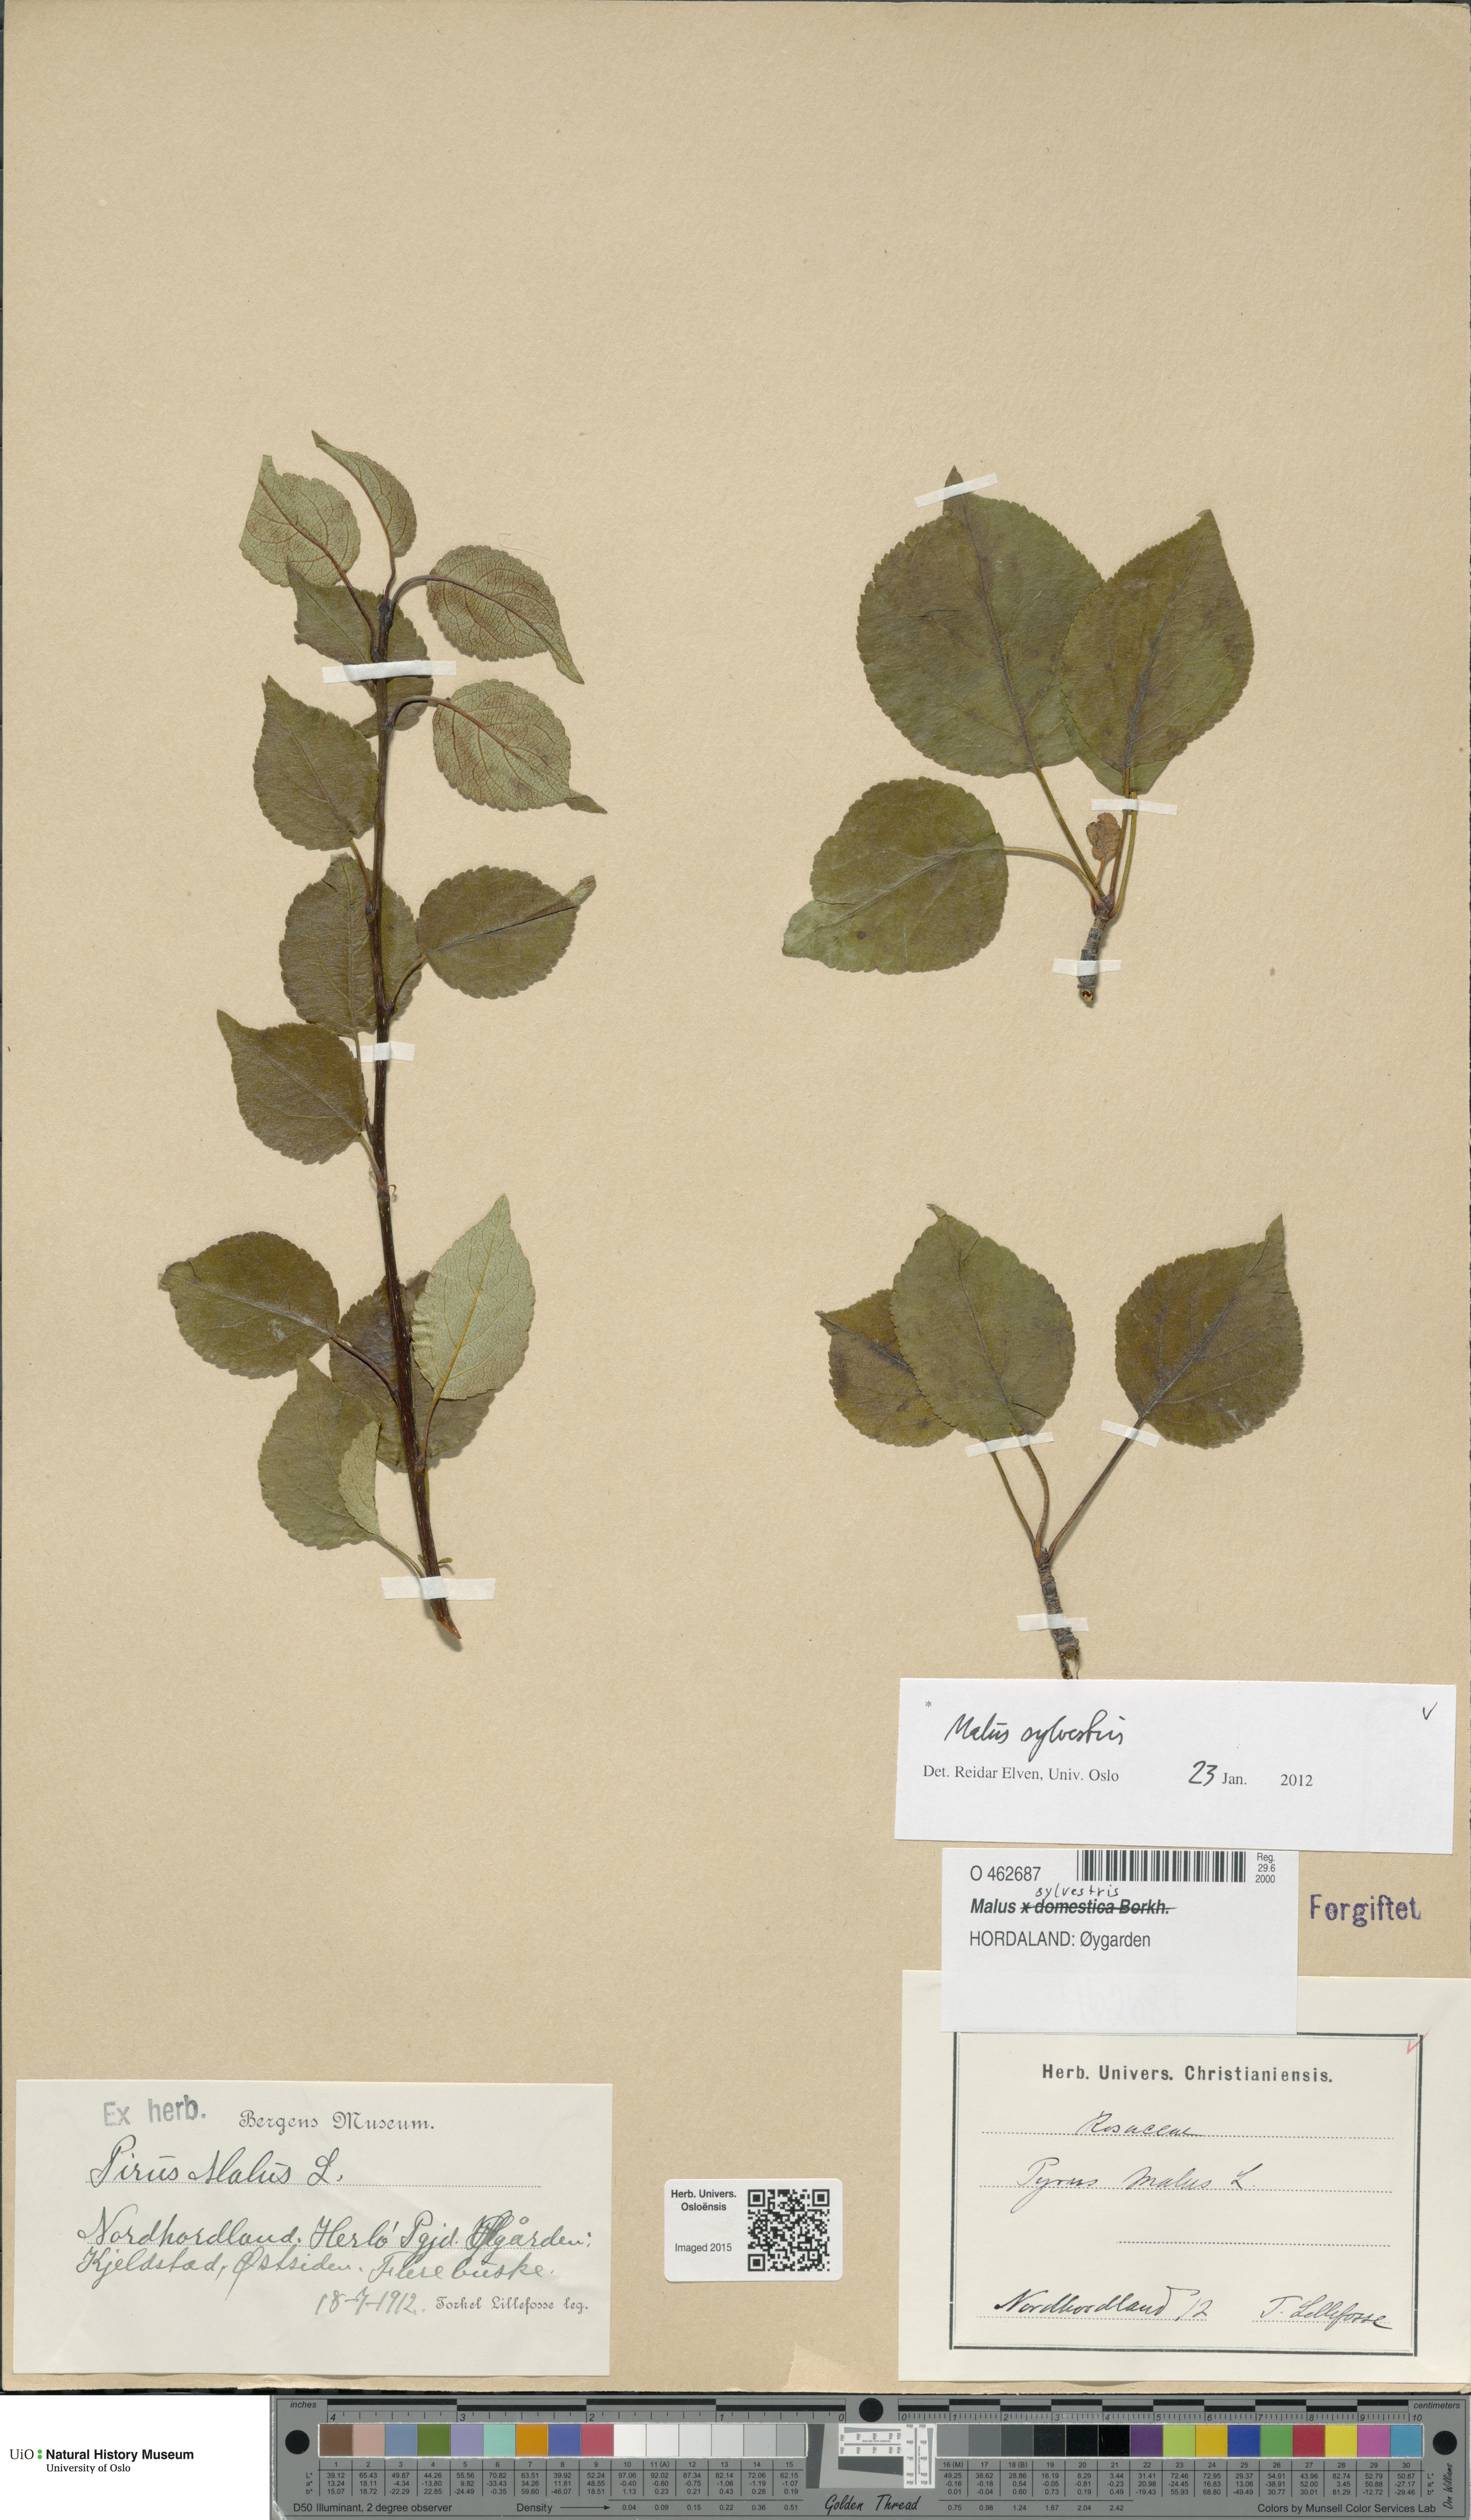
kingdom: Plantae
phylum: Tracheophyta
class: Magnoliopsida
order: Rosales
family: Rosaceae
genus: Malus
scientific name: Malus sylvestris
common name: Crab apple
